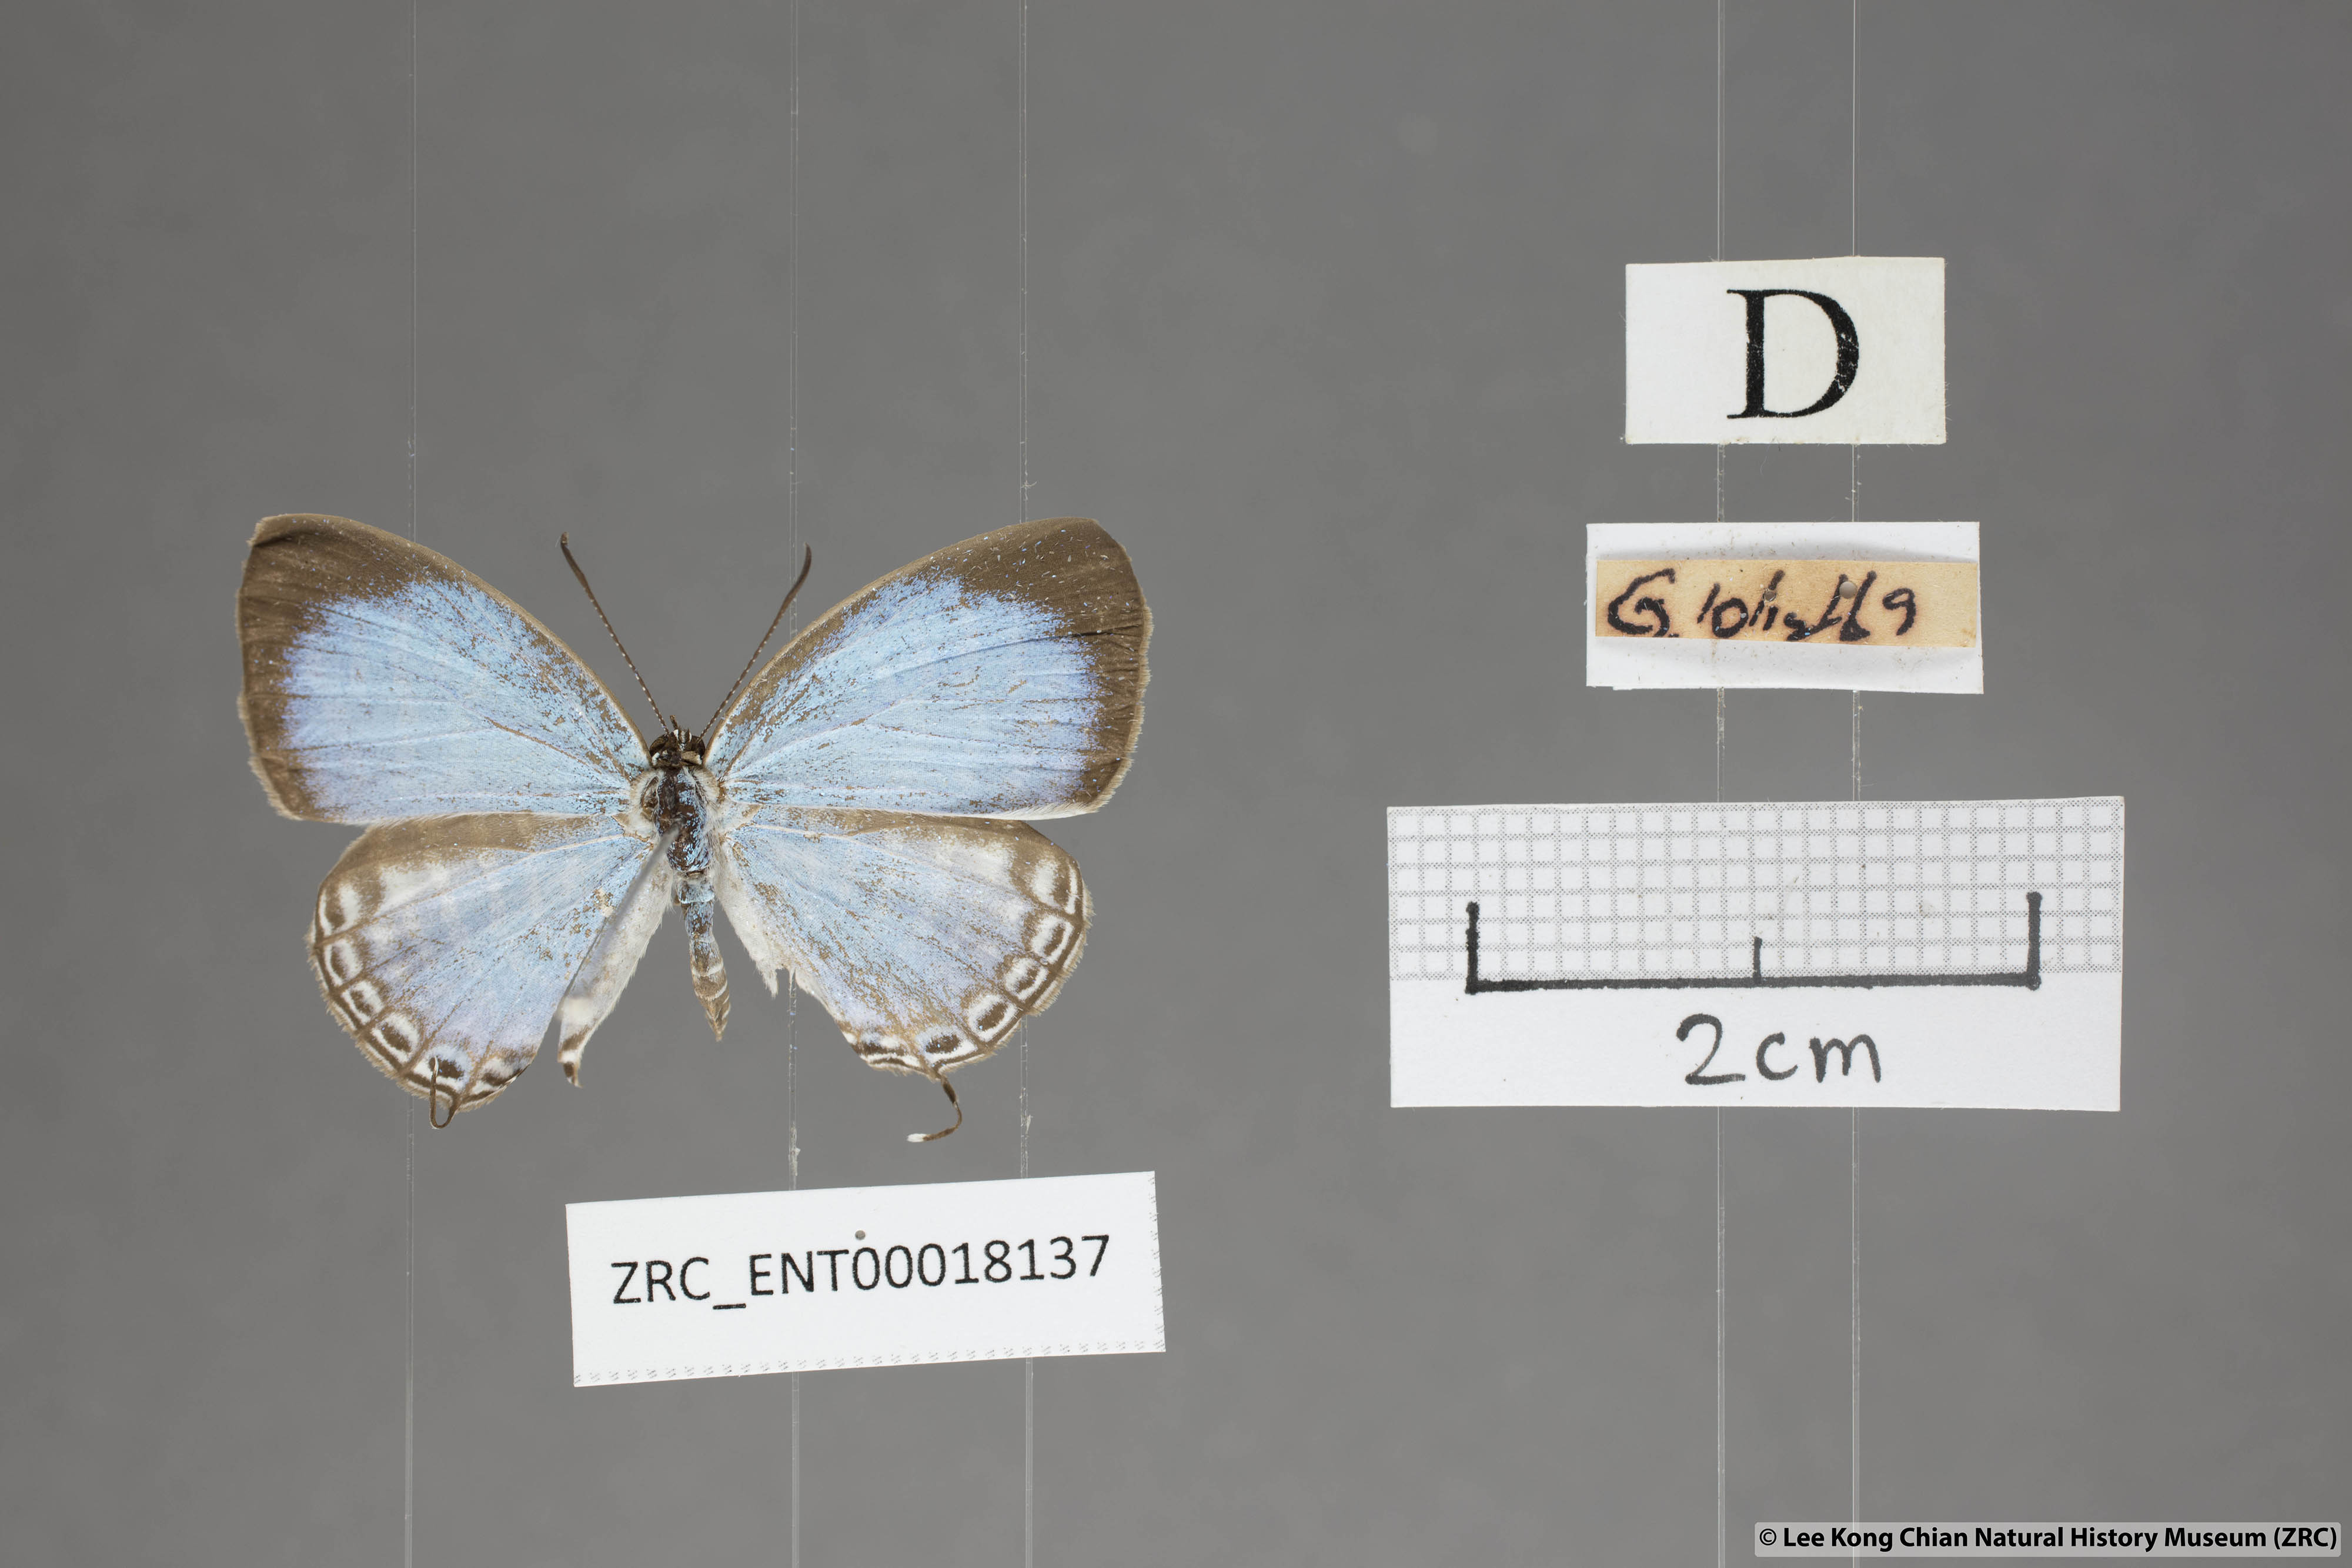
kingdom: Animalia
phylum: Arthropoda
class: Insecta
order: Lepidoptera
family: Lycaenidae
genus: Jamides
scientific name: Jamides malaccanus
